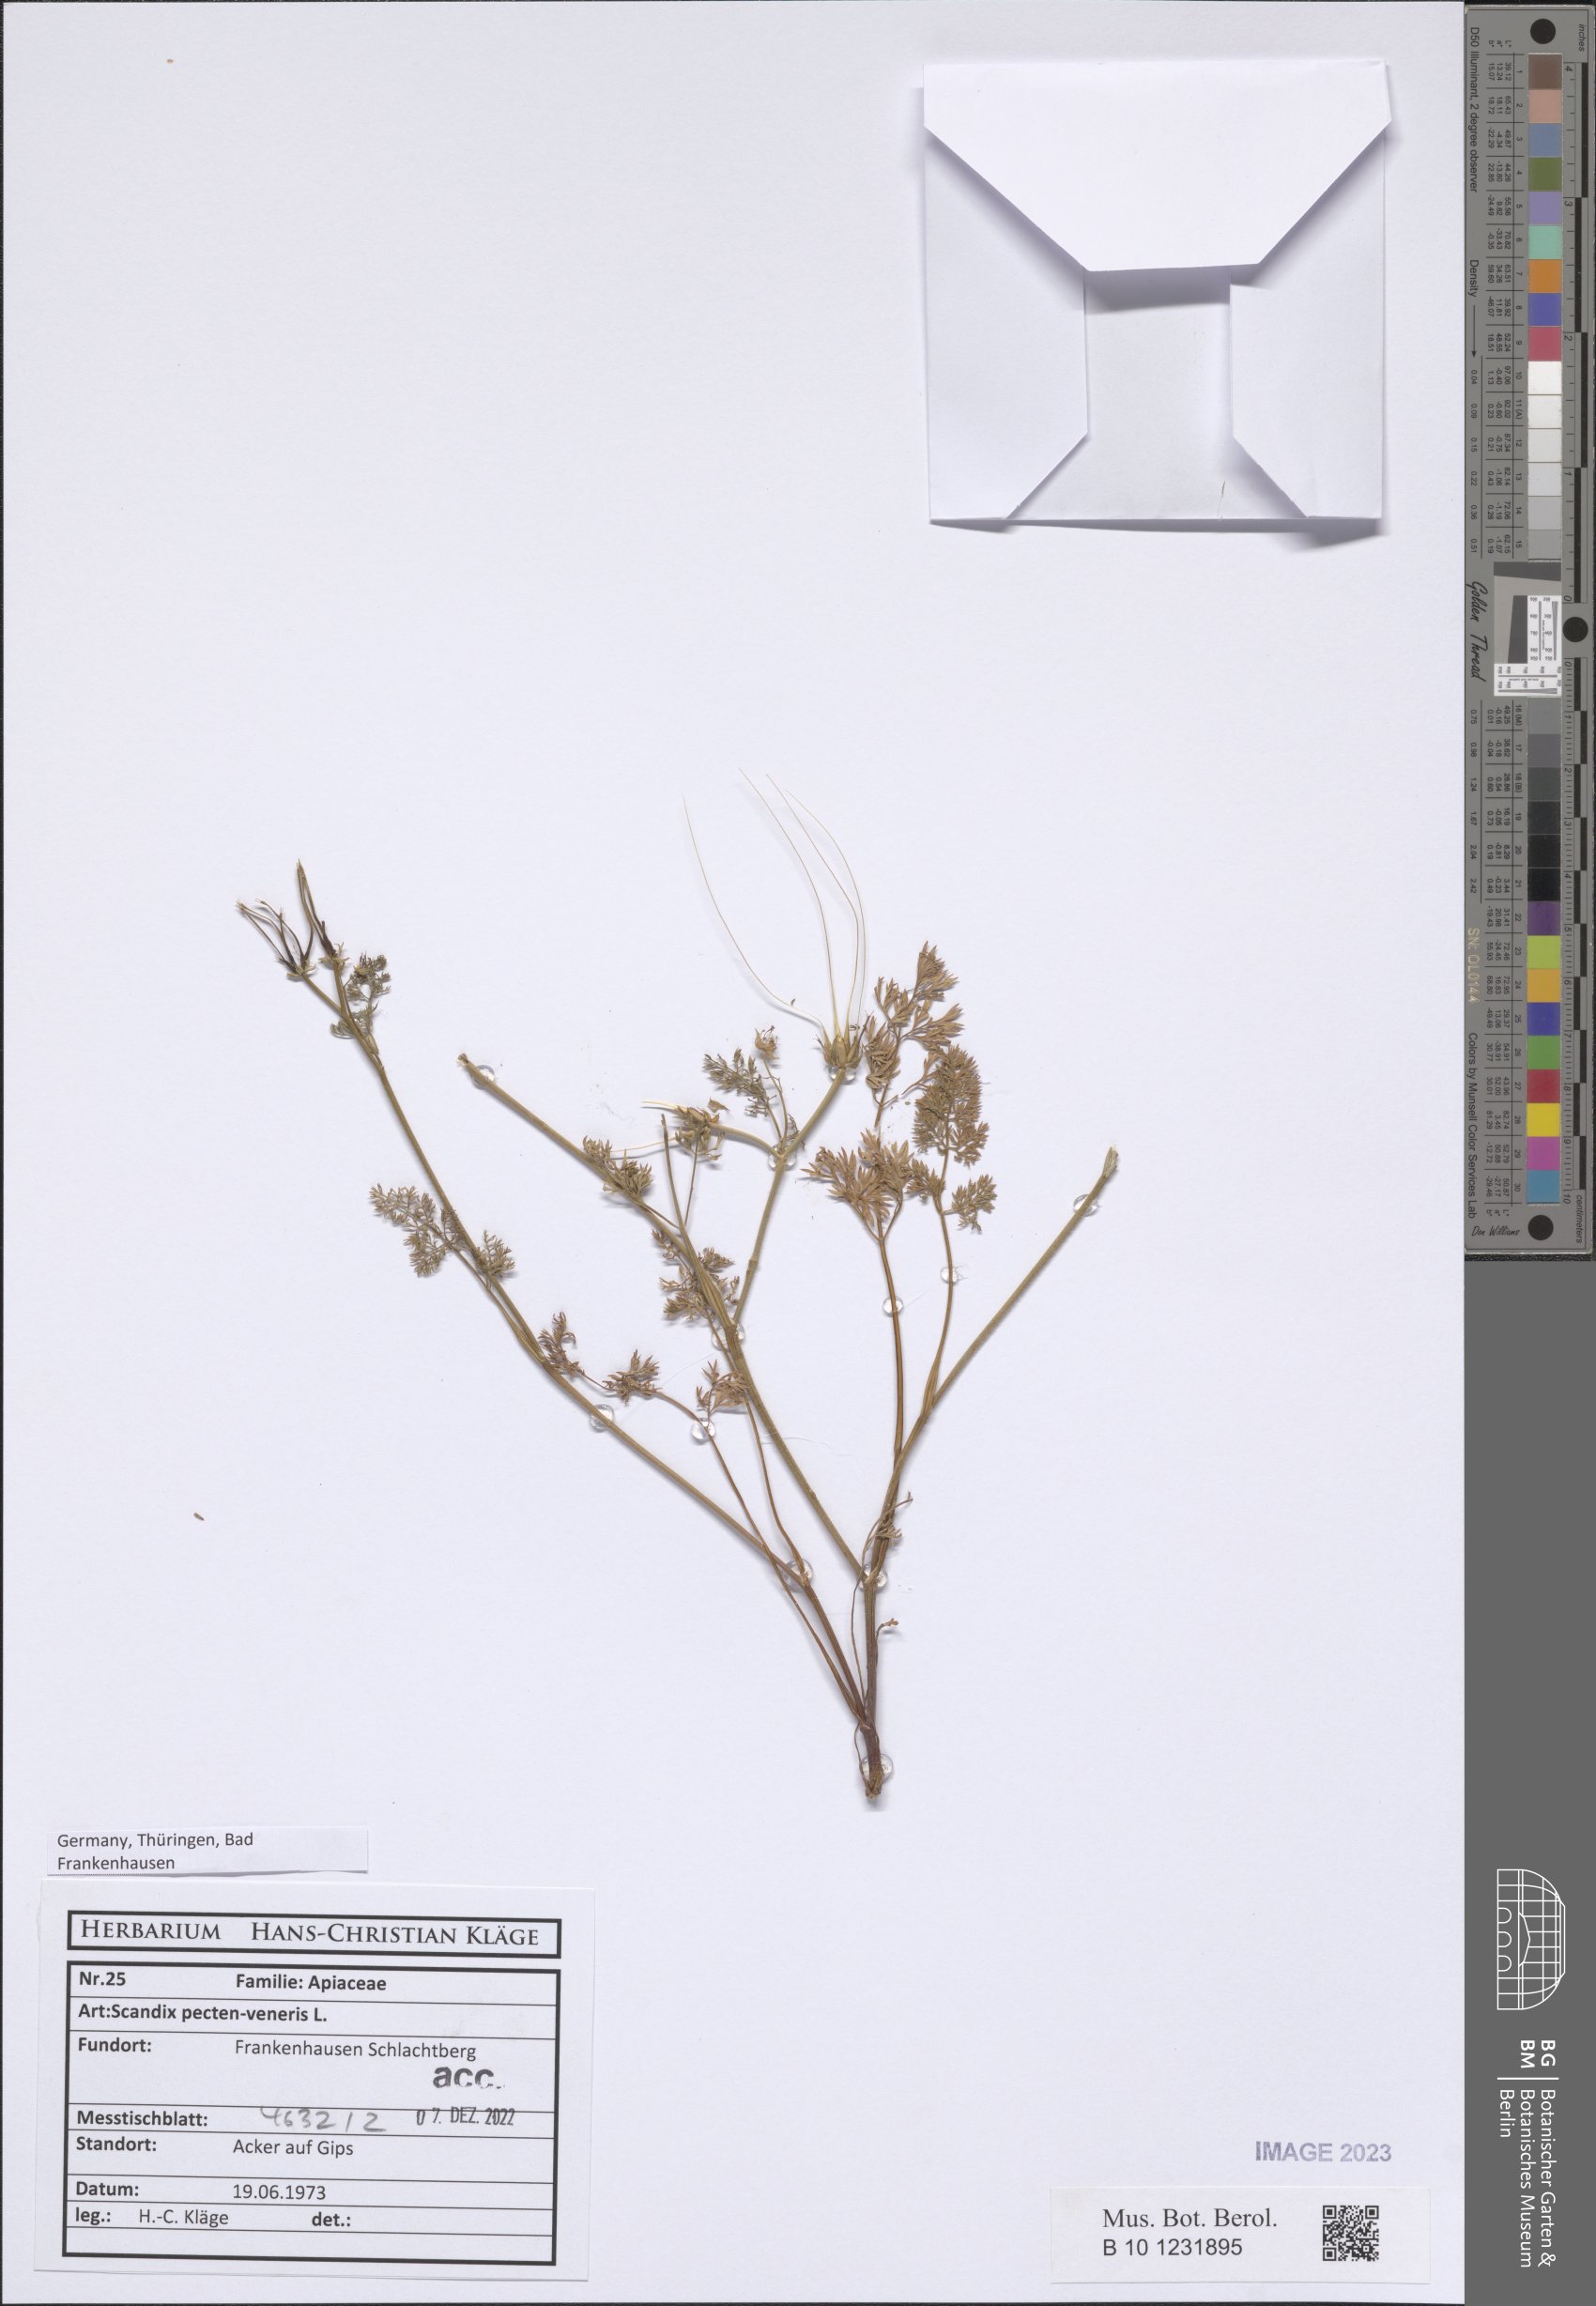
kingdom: Plantae
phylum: Tracheophyta
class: Magnoliopsida
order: Apiales
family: Apiaceae
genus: Scandix
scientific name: Scandix pecten-veneris
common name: Shepherd's-needle
